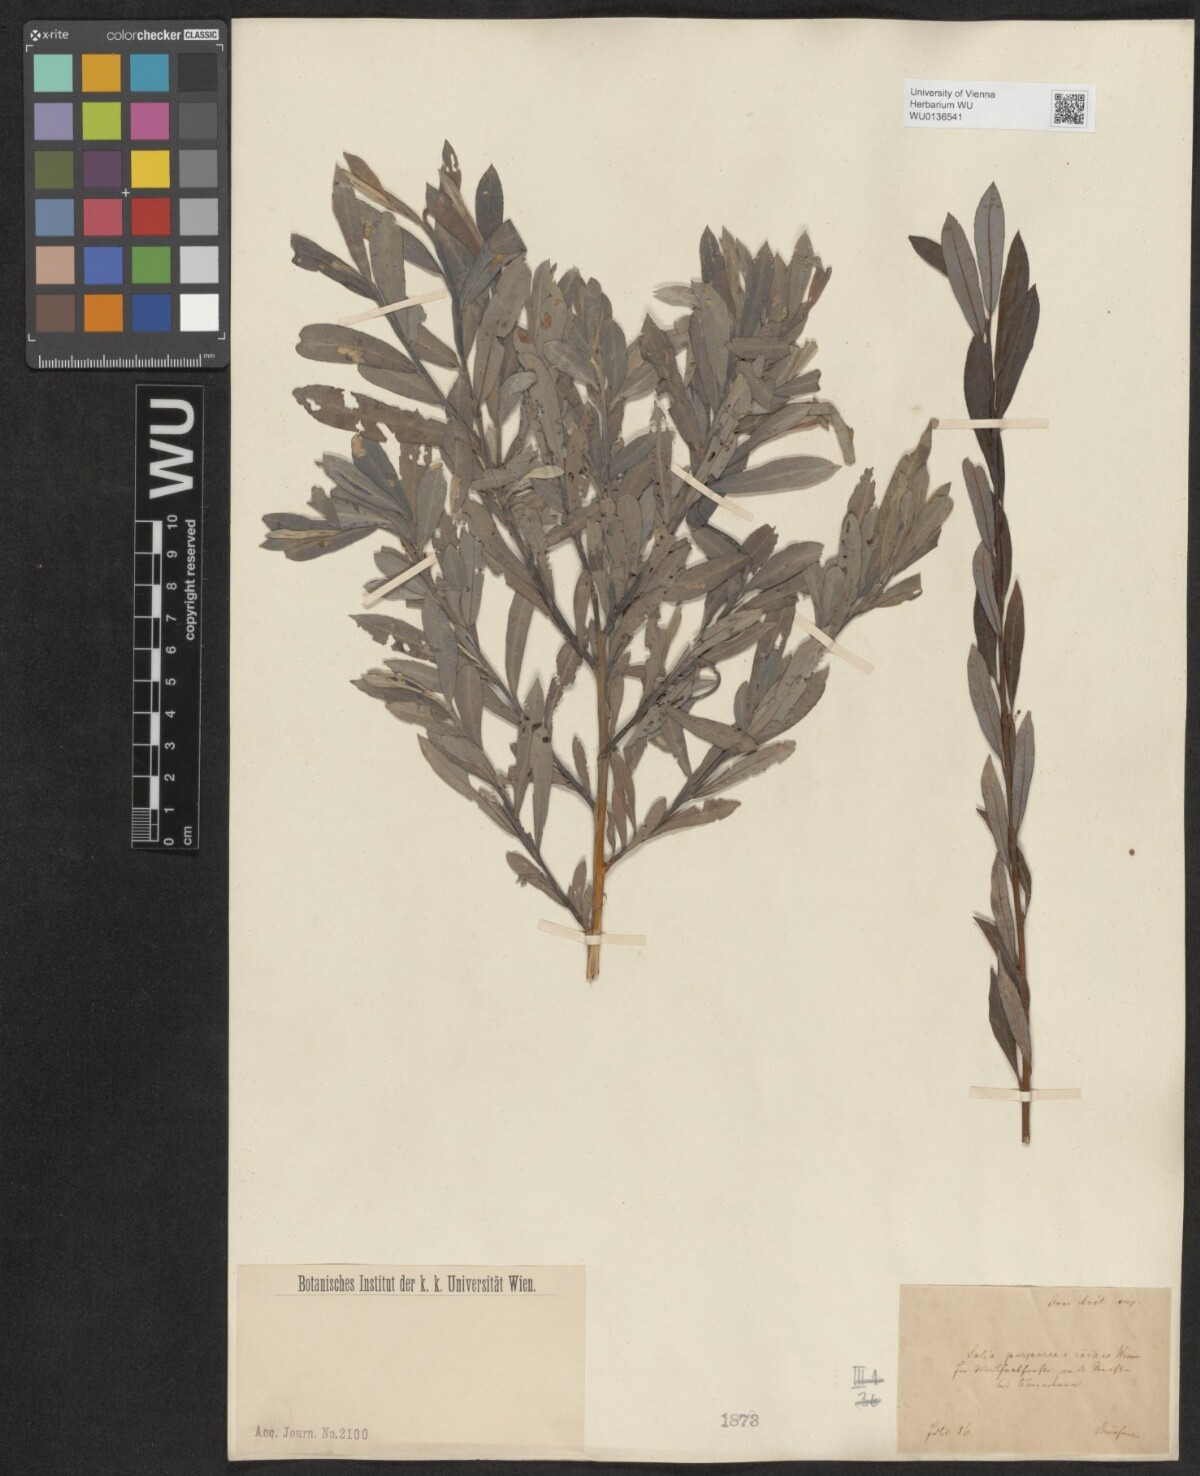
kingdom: Plantae
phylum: Tracheophyta
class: Magnoliopsida
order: Malpighiales
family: Salicaceae
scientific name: Salicaceae
